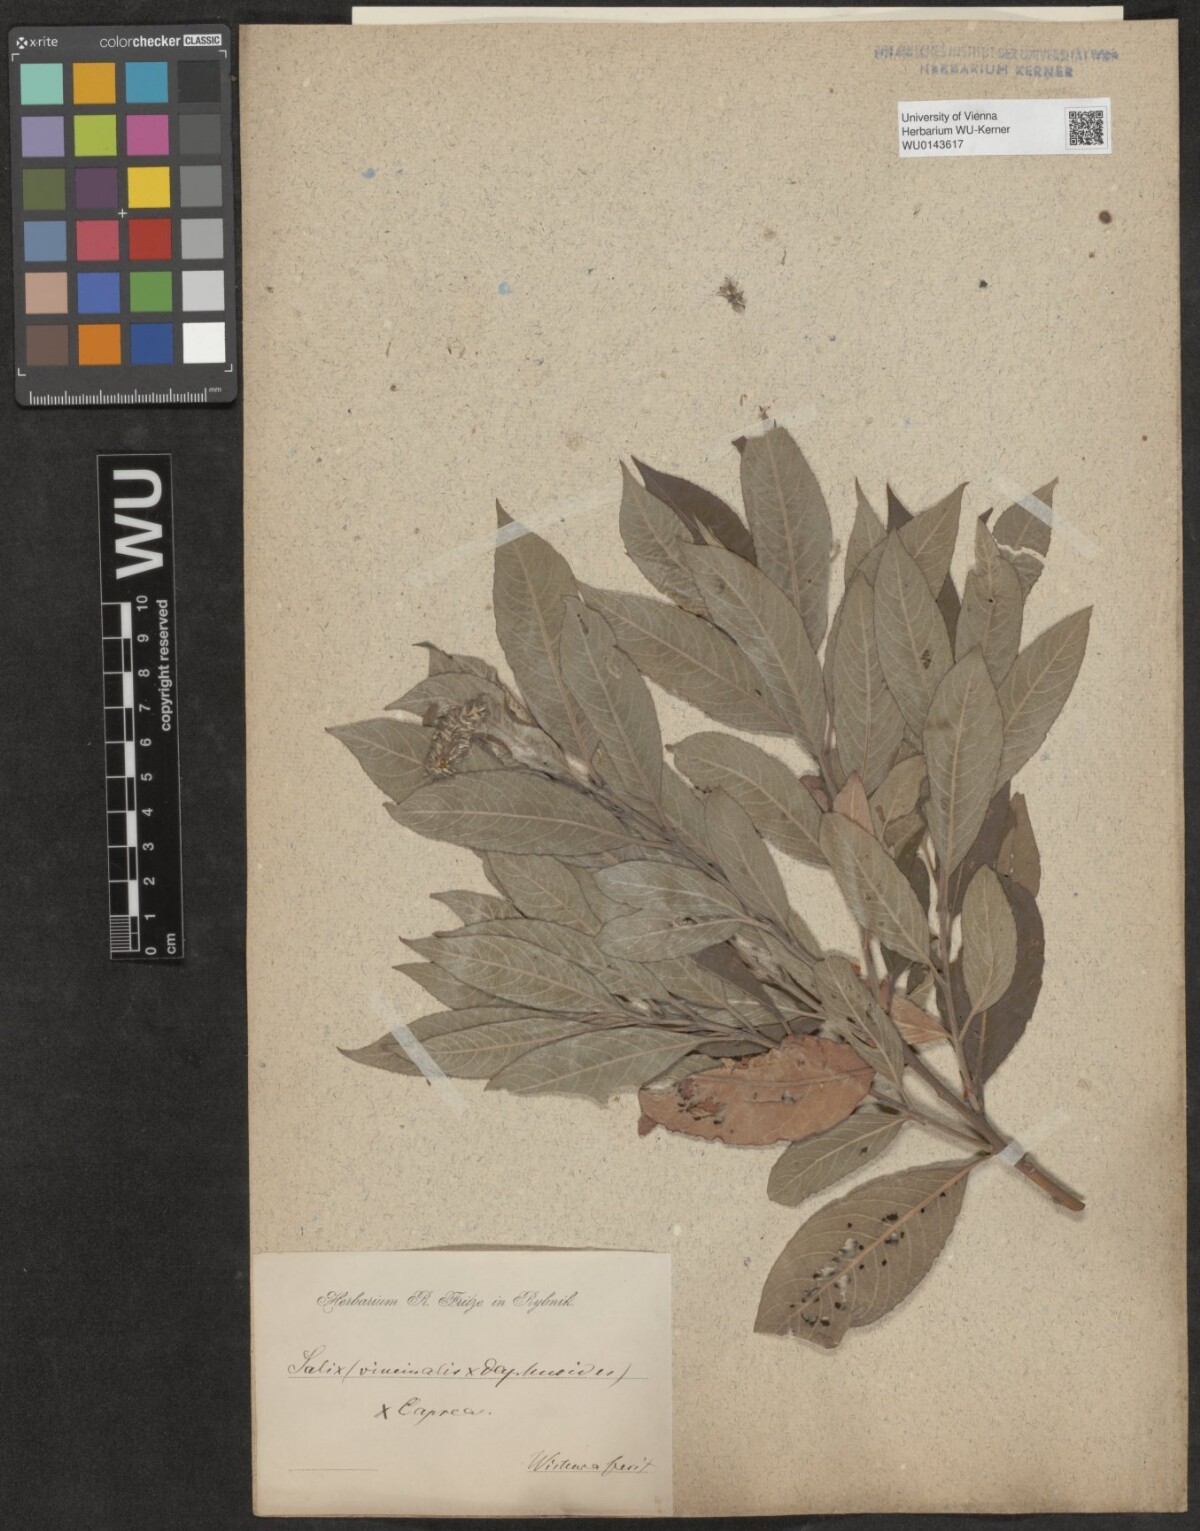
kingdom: Plantae
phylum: Tracheophyta
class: Magnoliopsida
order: Malpighiales
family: Salicaceae
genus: Salix
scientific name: Salix
